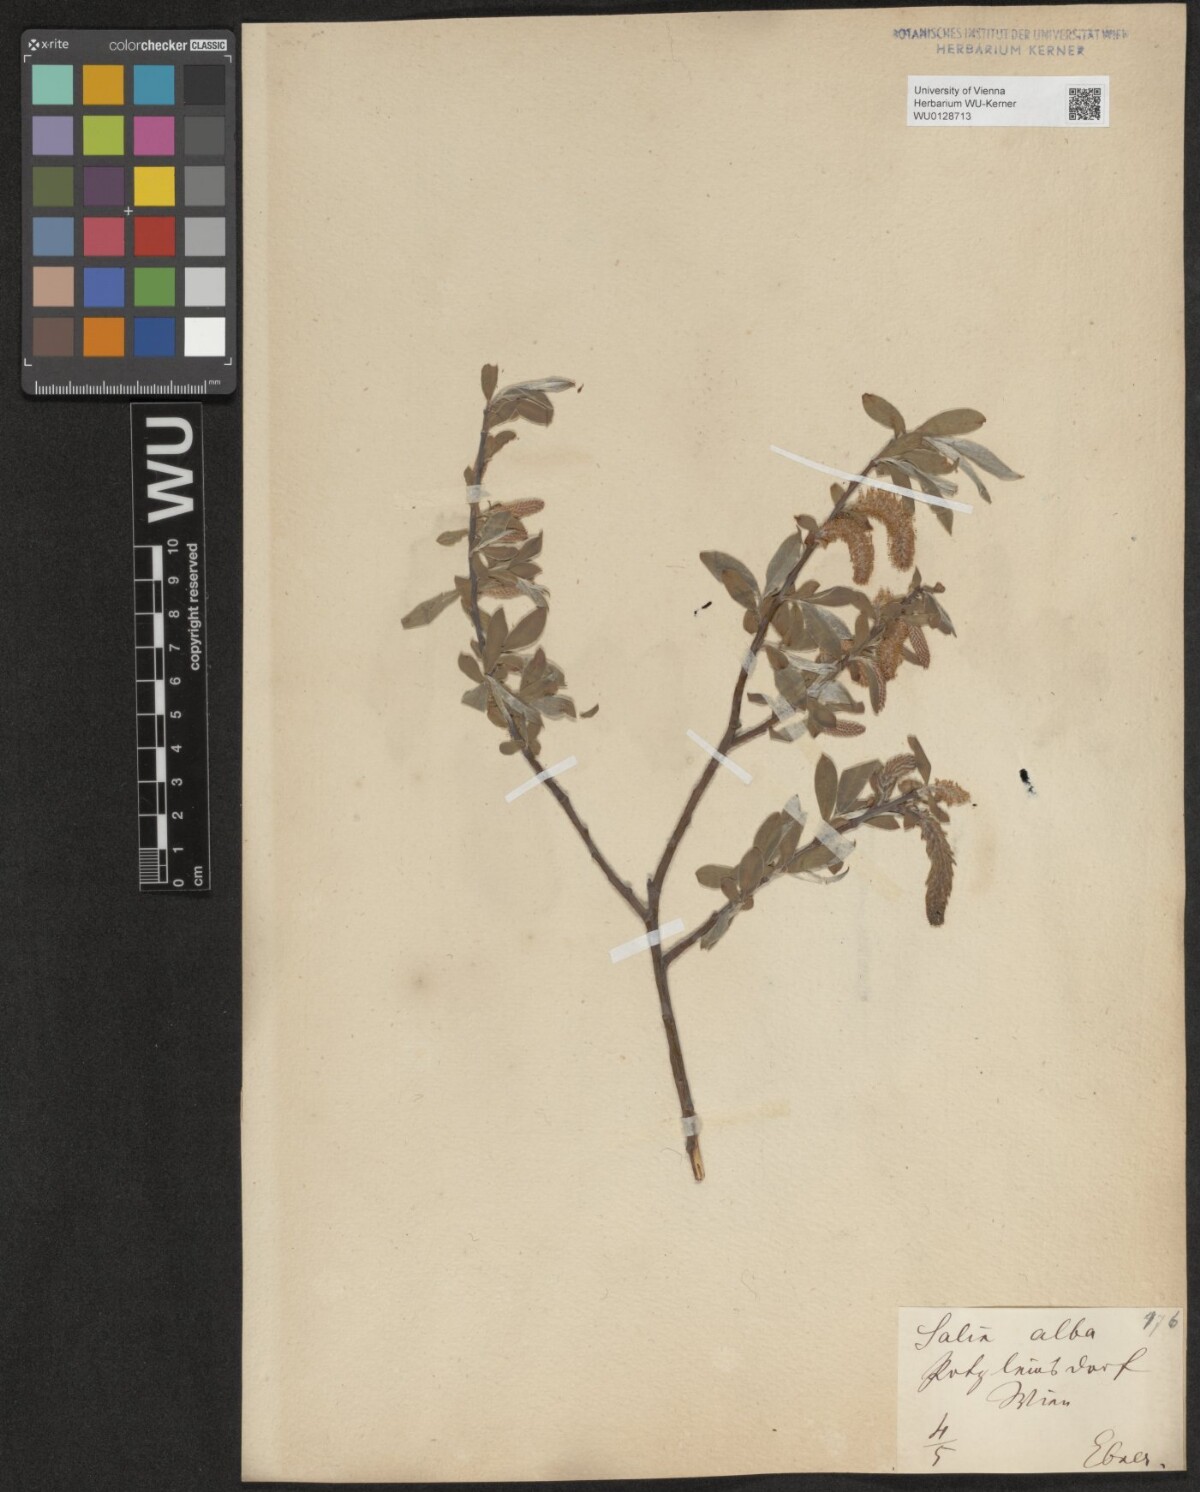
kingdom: Plantae
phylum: Tracheophyta
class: Magnoliopsida
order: Malpighiales
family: Salicaceae
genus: Salix
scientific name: Salix alba
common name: White willow
